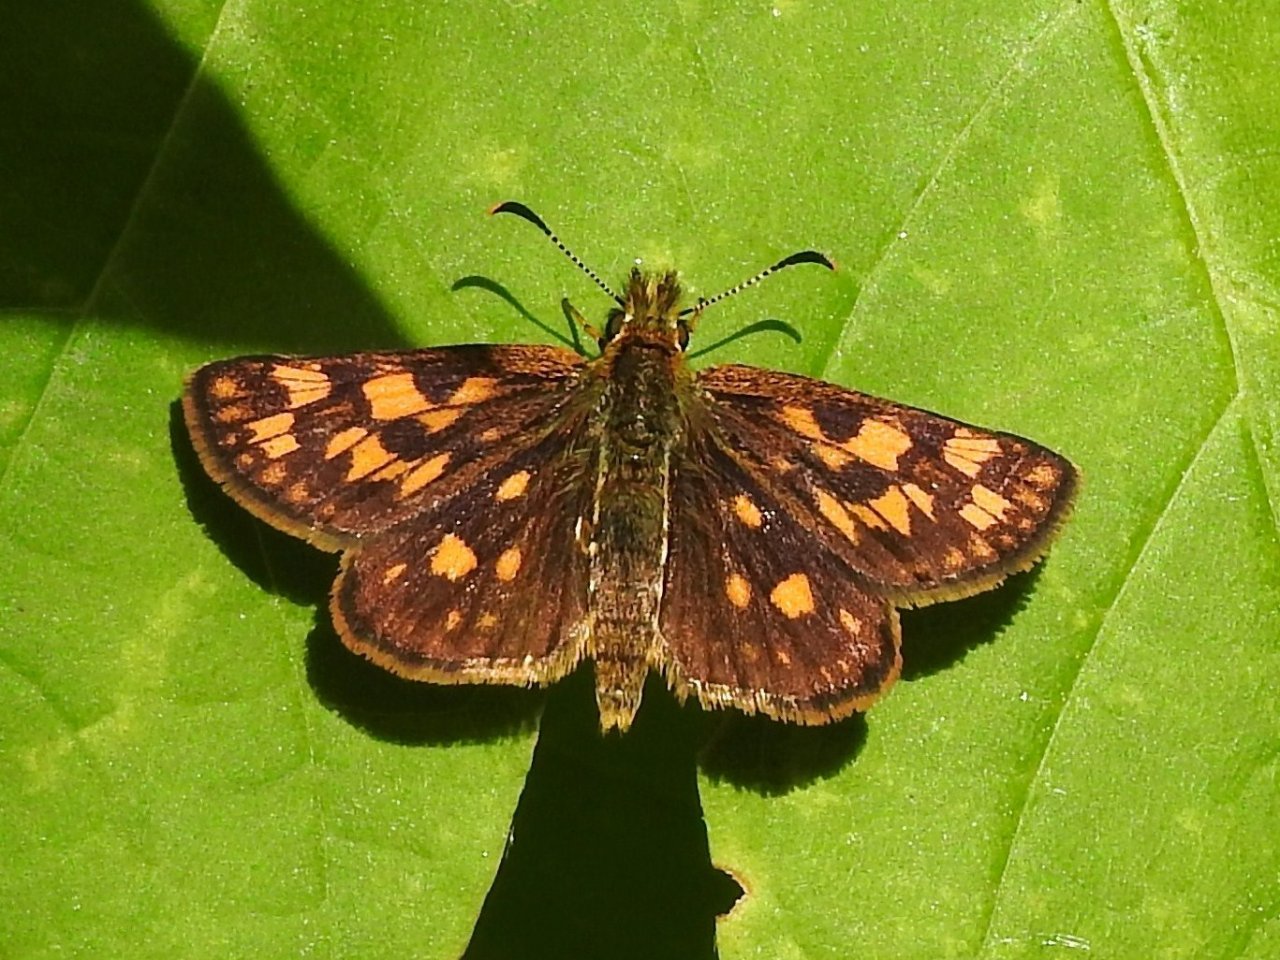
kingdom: Animalia
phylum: Arthropoda
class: Insecta
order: Lepidoptera
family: Hesperiidae
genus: Carterocephalus
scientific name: Carterocephalus palaemon
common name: Chequered Skipper
